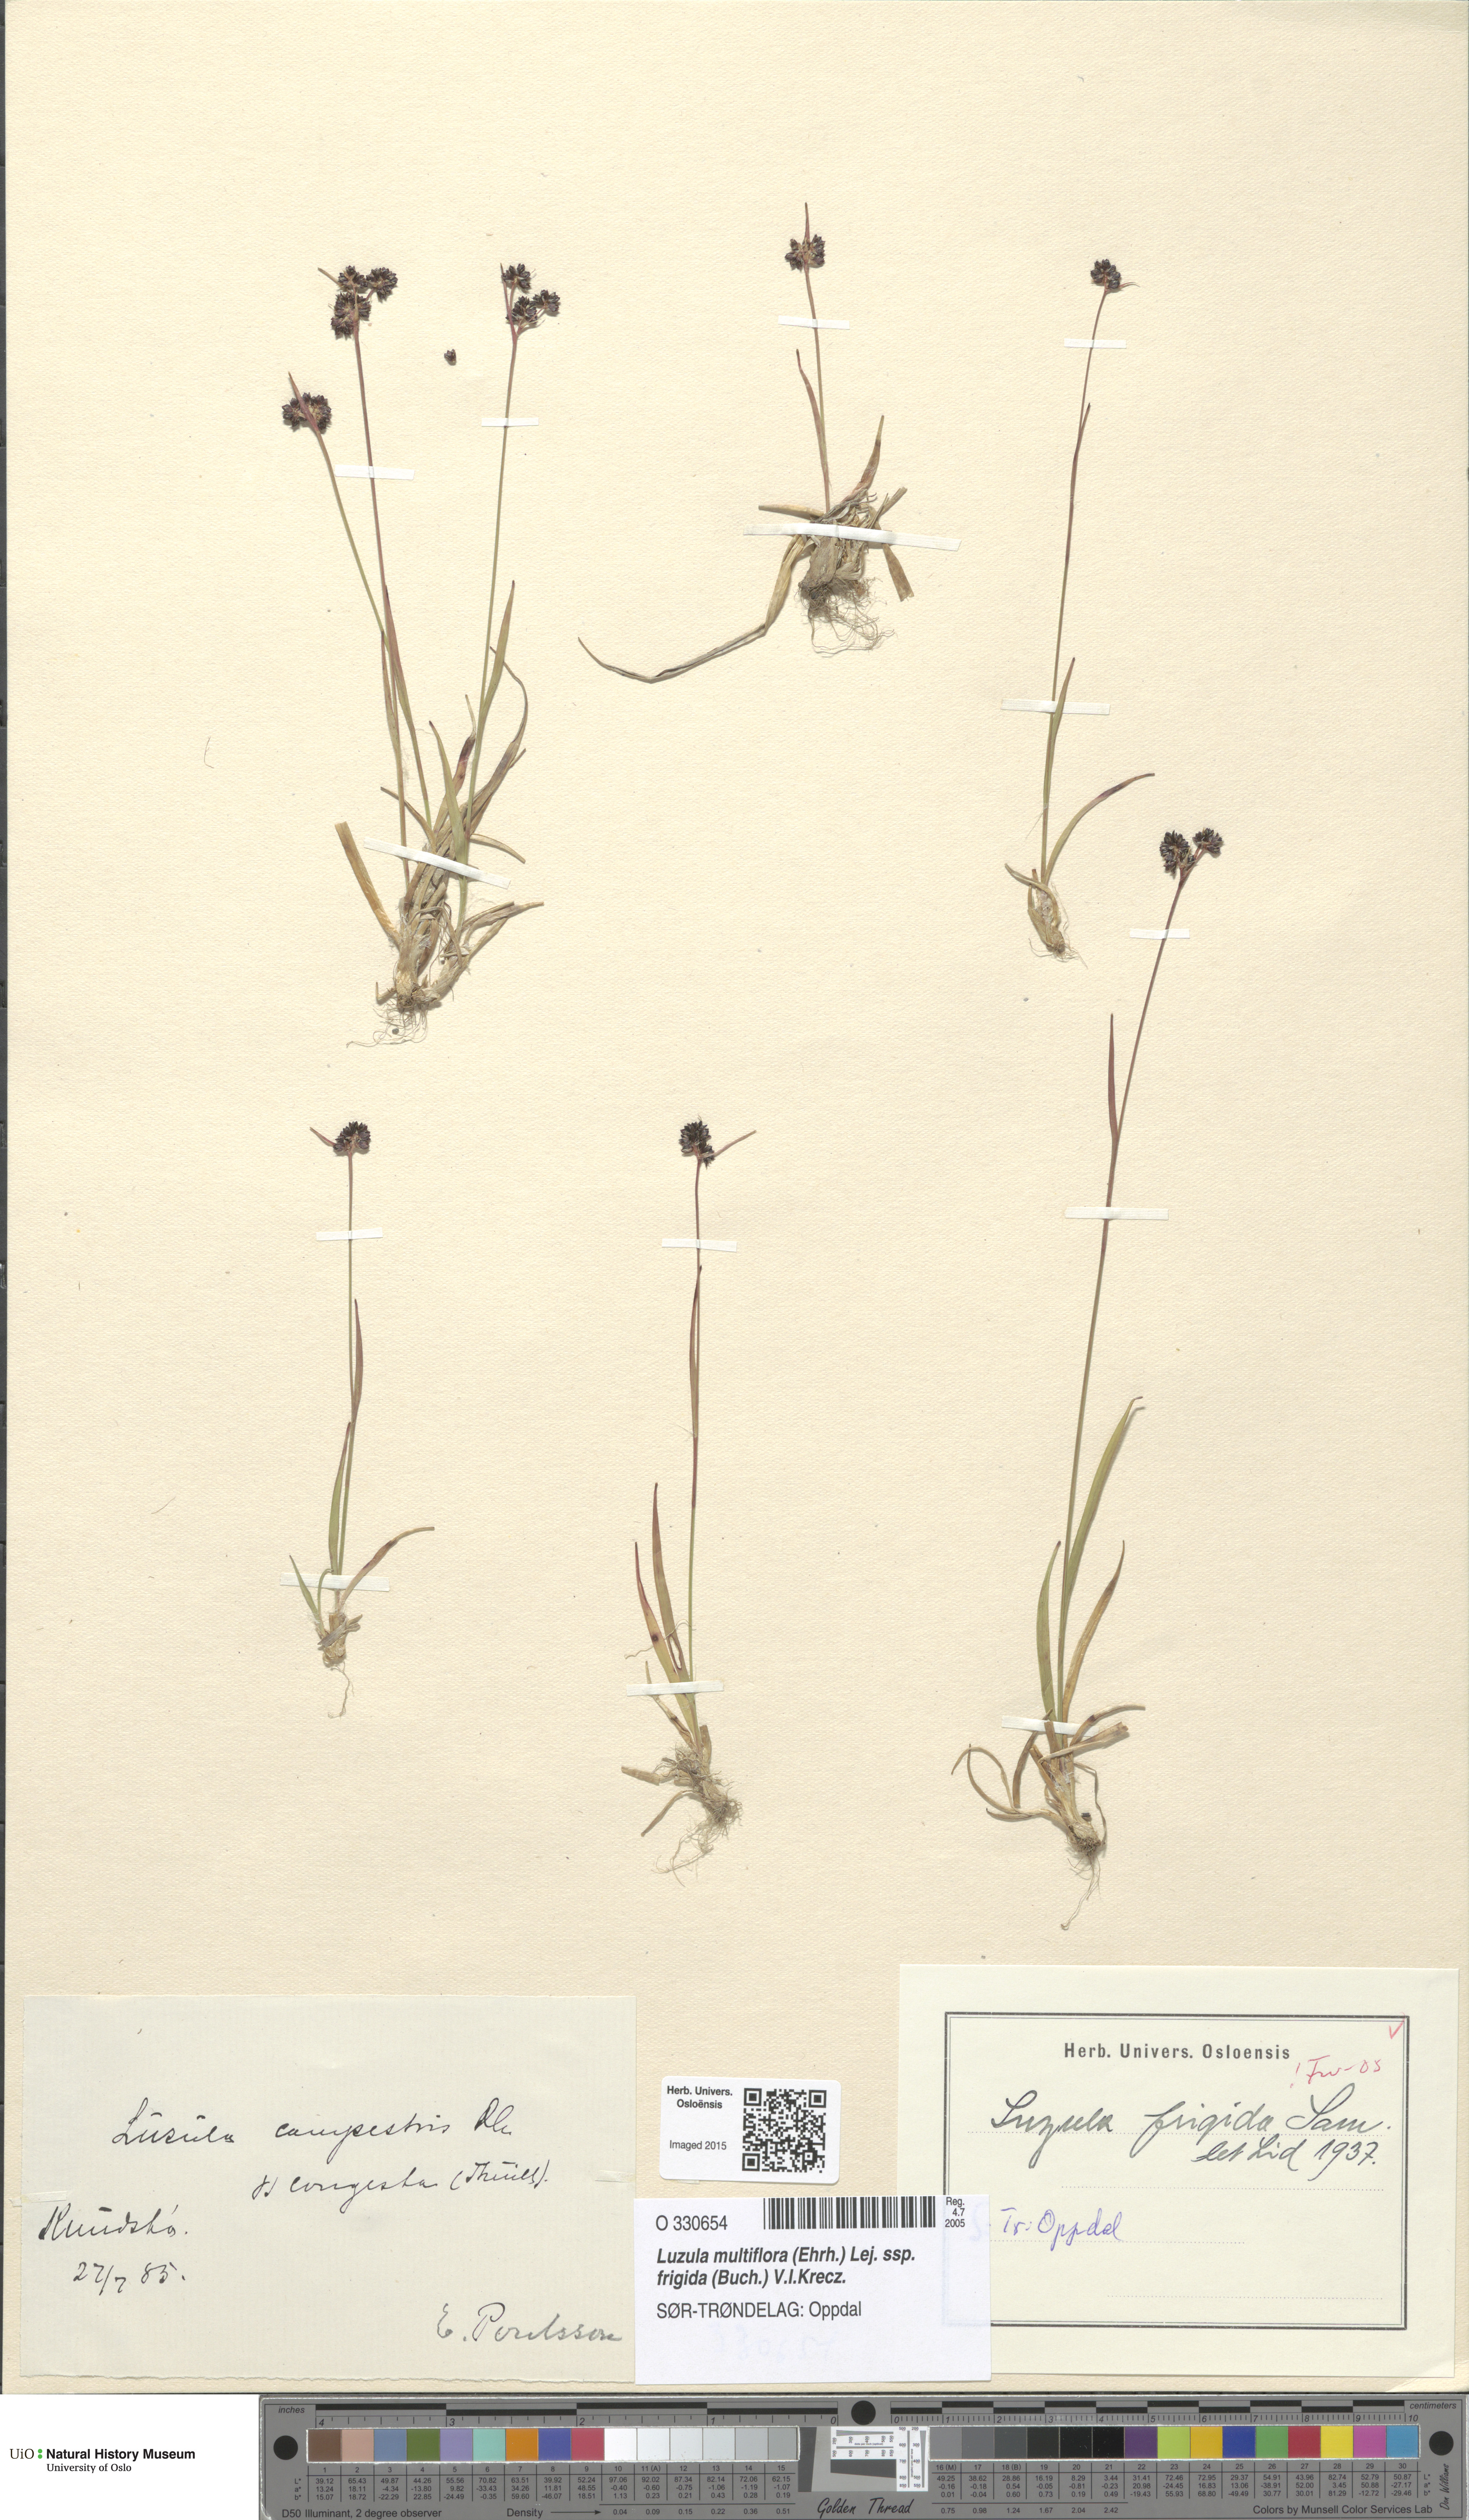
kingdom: Plantae
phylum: Tracheophyta
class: Liliopsida
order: Poales
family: Juncaceae
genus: Luzula
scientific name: Luzula multiflora
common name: Heath wood-rush
